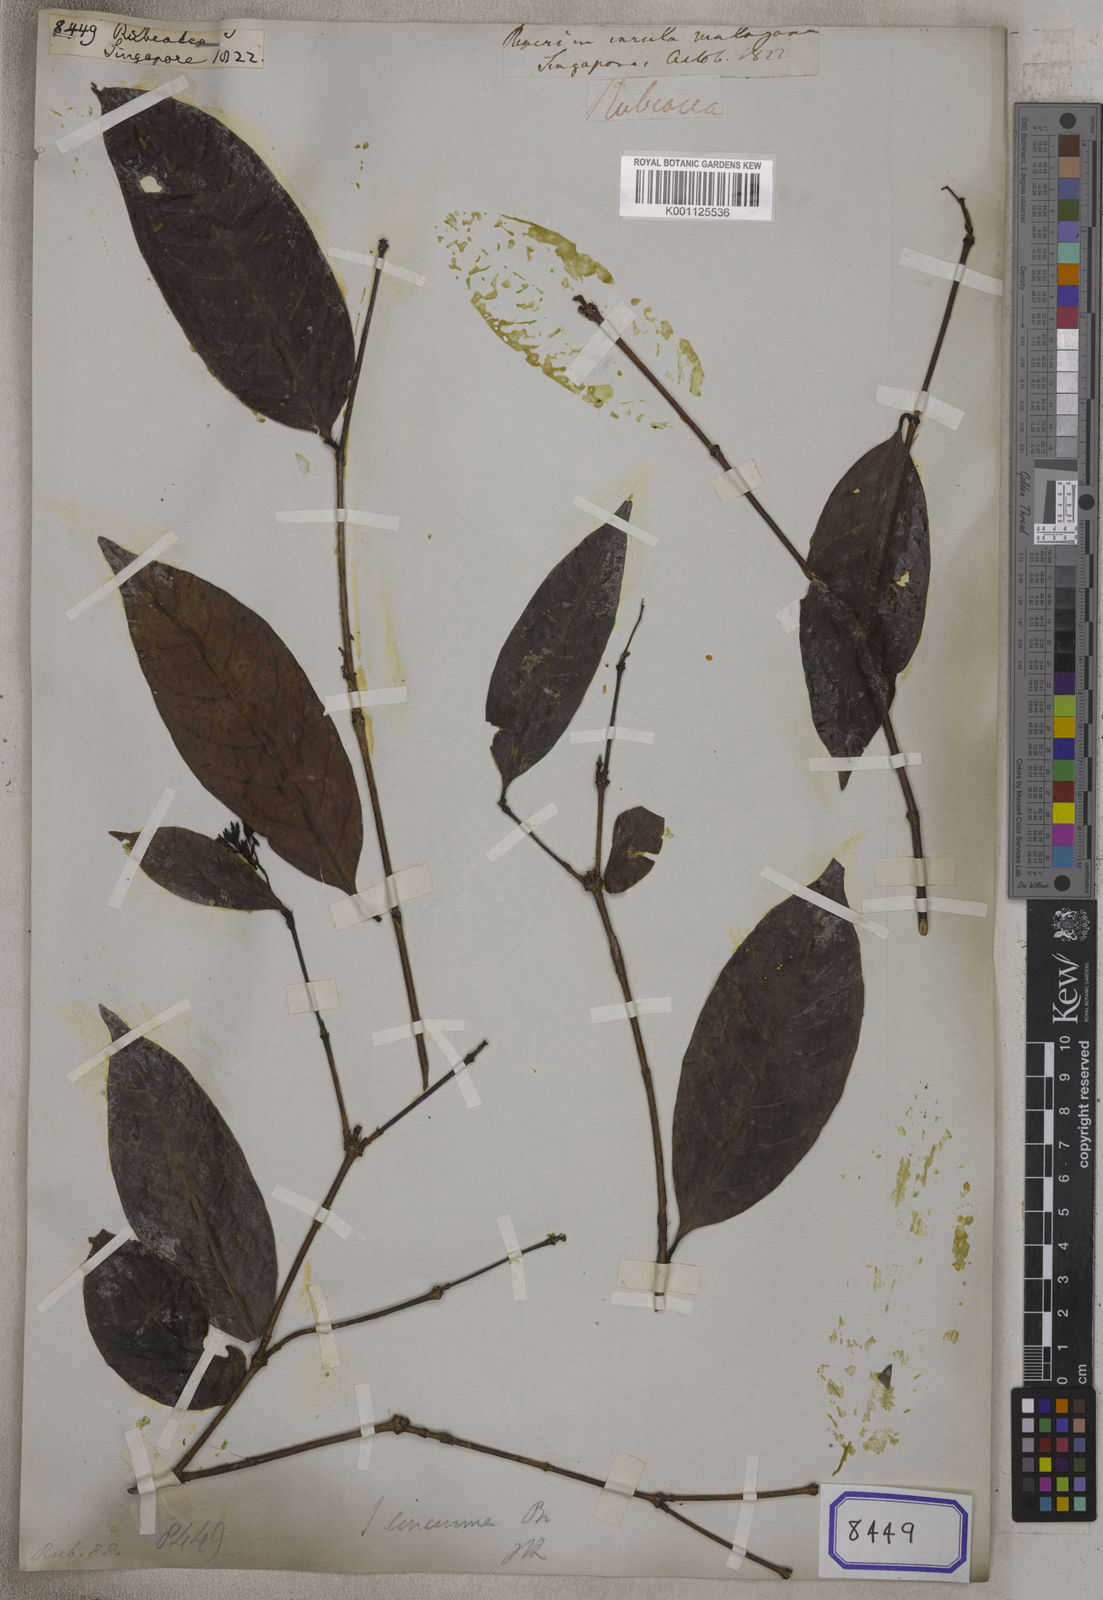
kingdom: Plantae
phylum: Tracheophyta
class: Magnoliopsida
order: Gentianales
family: Rubiaceae
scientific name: Rubiaceae
